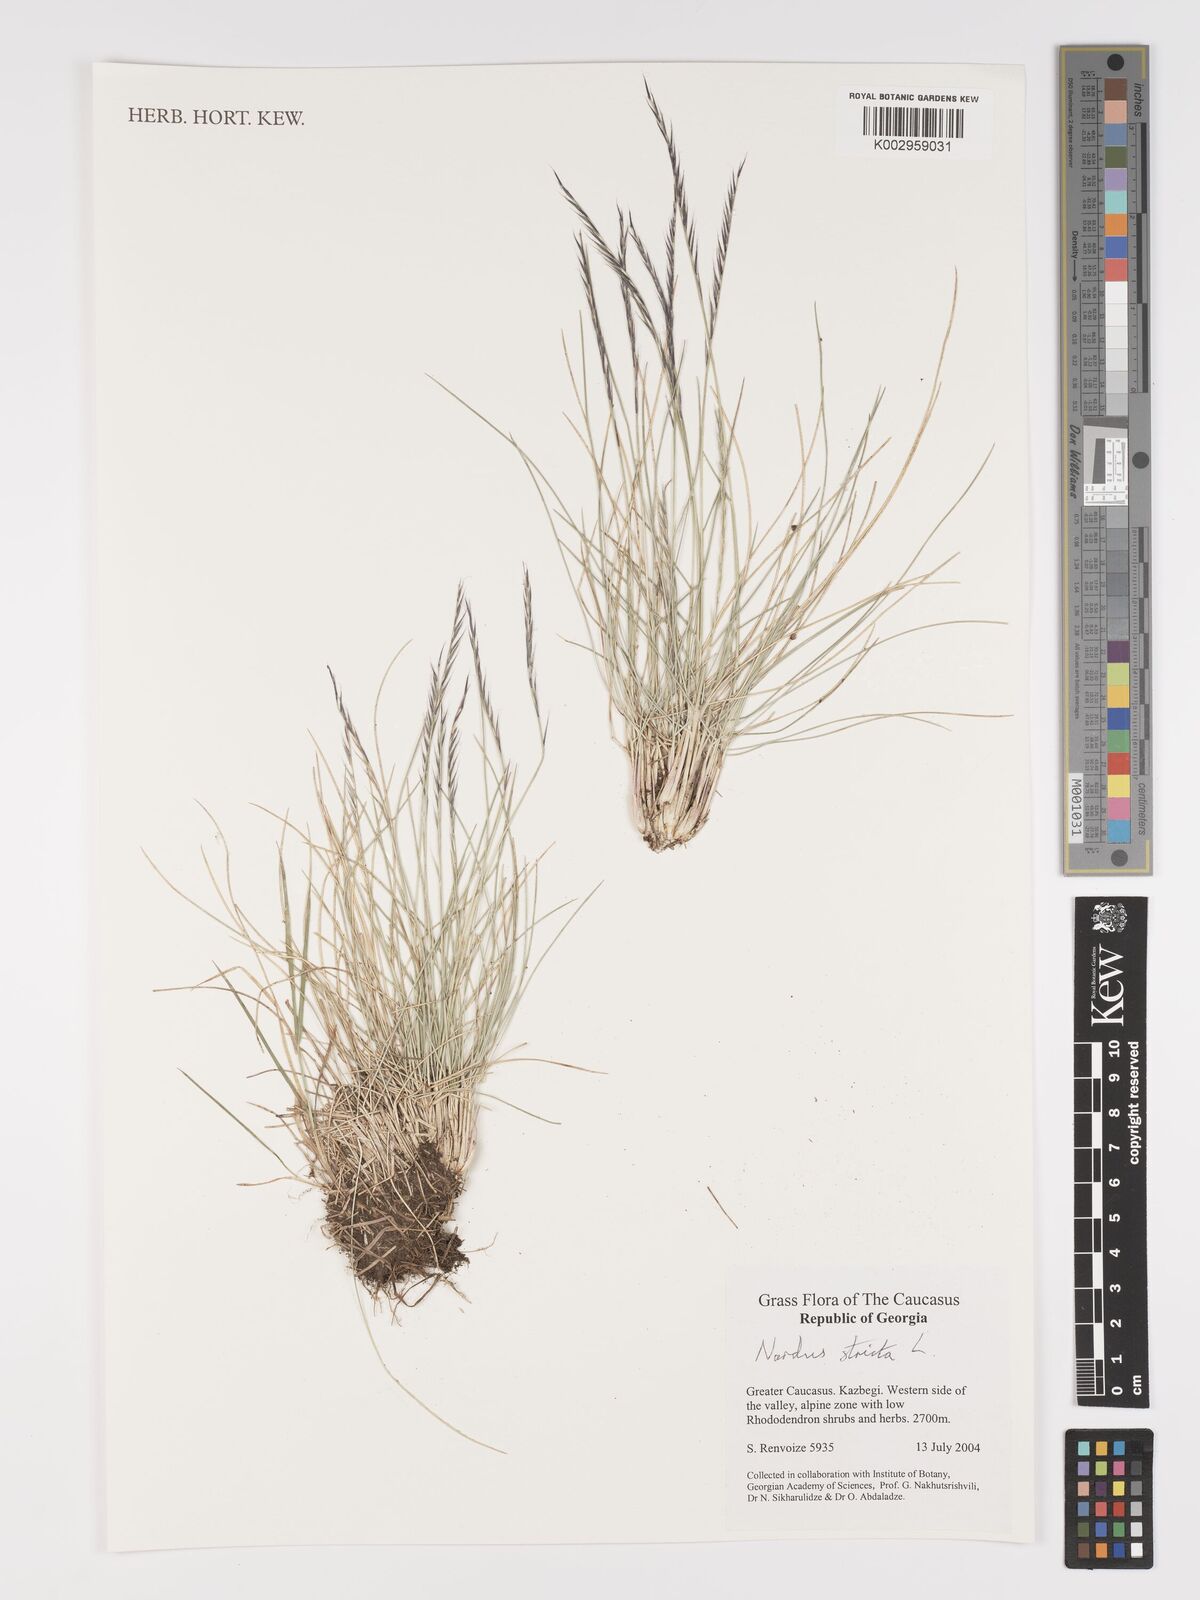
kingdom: Plantae
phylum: Tracheophyta
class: Liliopsida
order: Poales
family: Poaceae
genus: Nardus
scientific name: Nardus stricta
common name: Mat-grass
